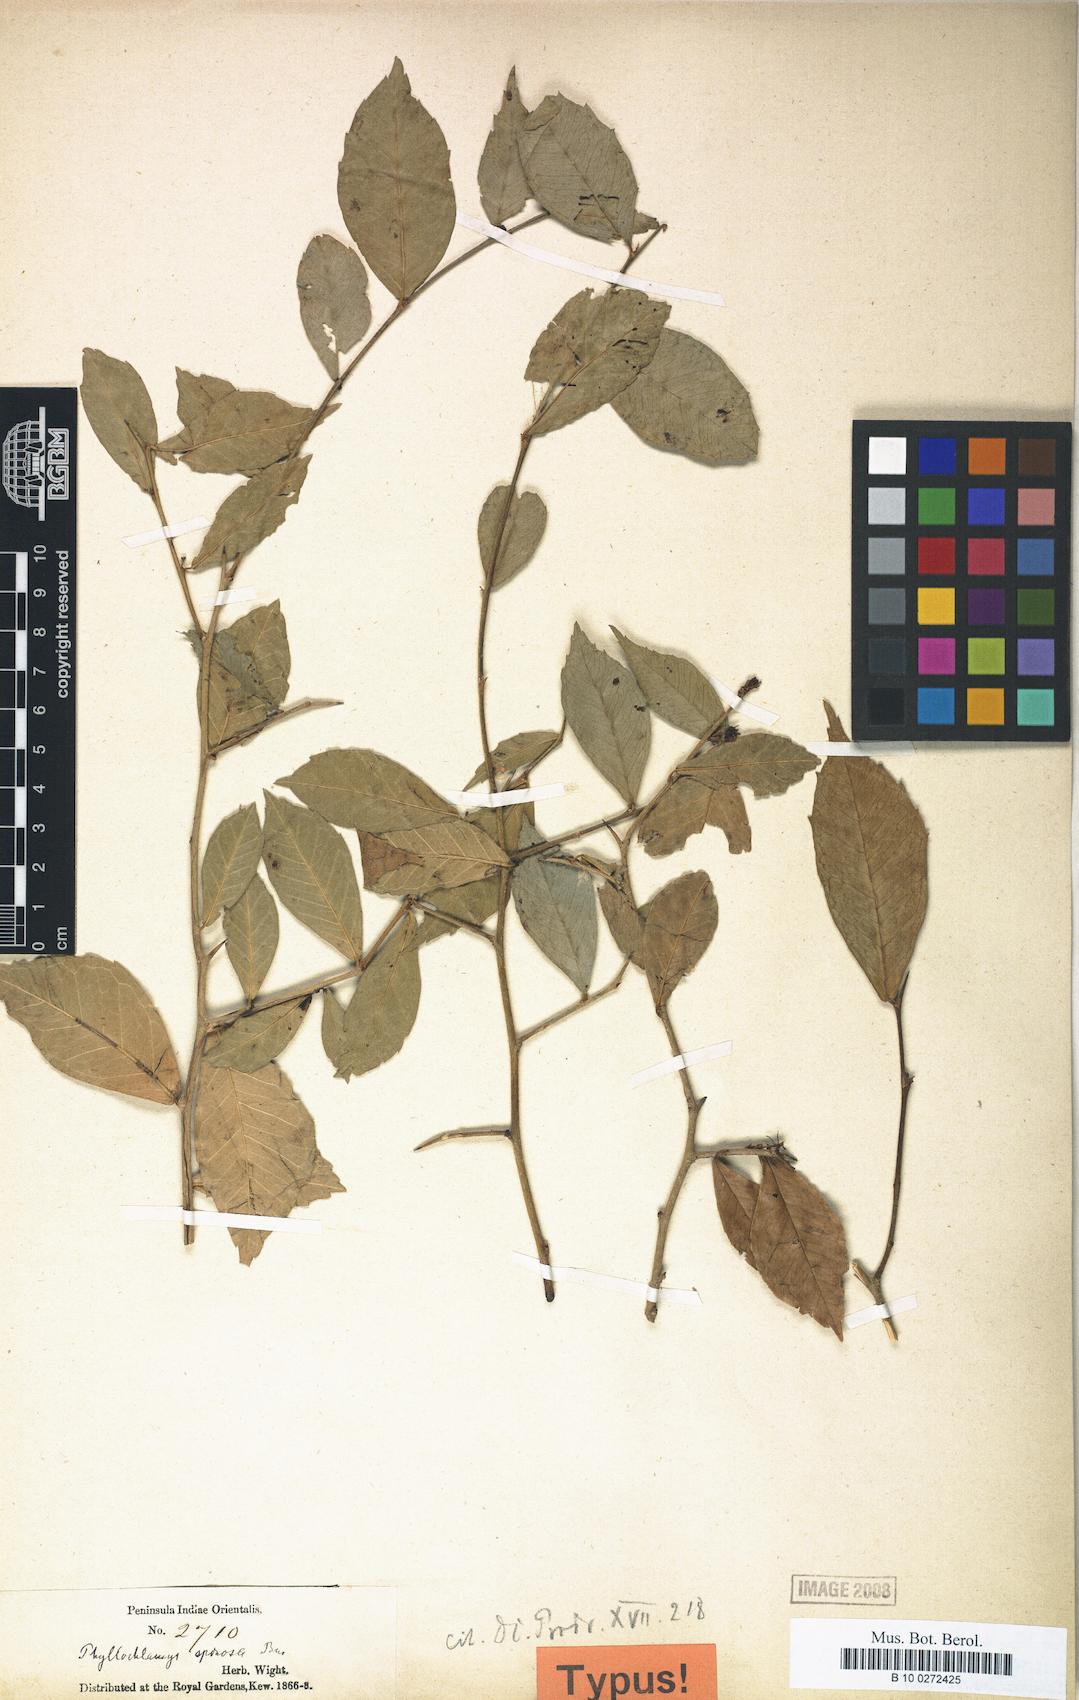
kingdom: Plantae
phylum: Tracheophyta
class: Magnoliopsida
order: Rosales
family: Moraceae
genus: Taxotrophis
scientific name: Taxotrophis spinosa
